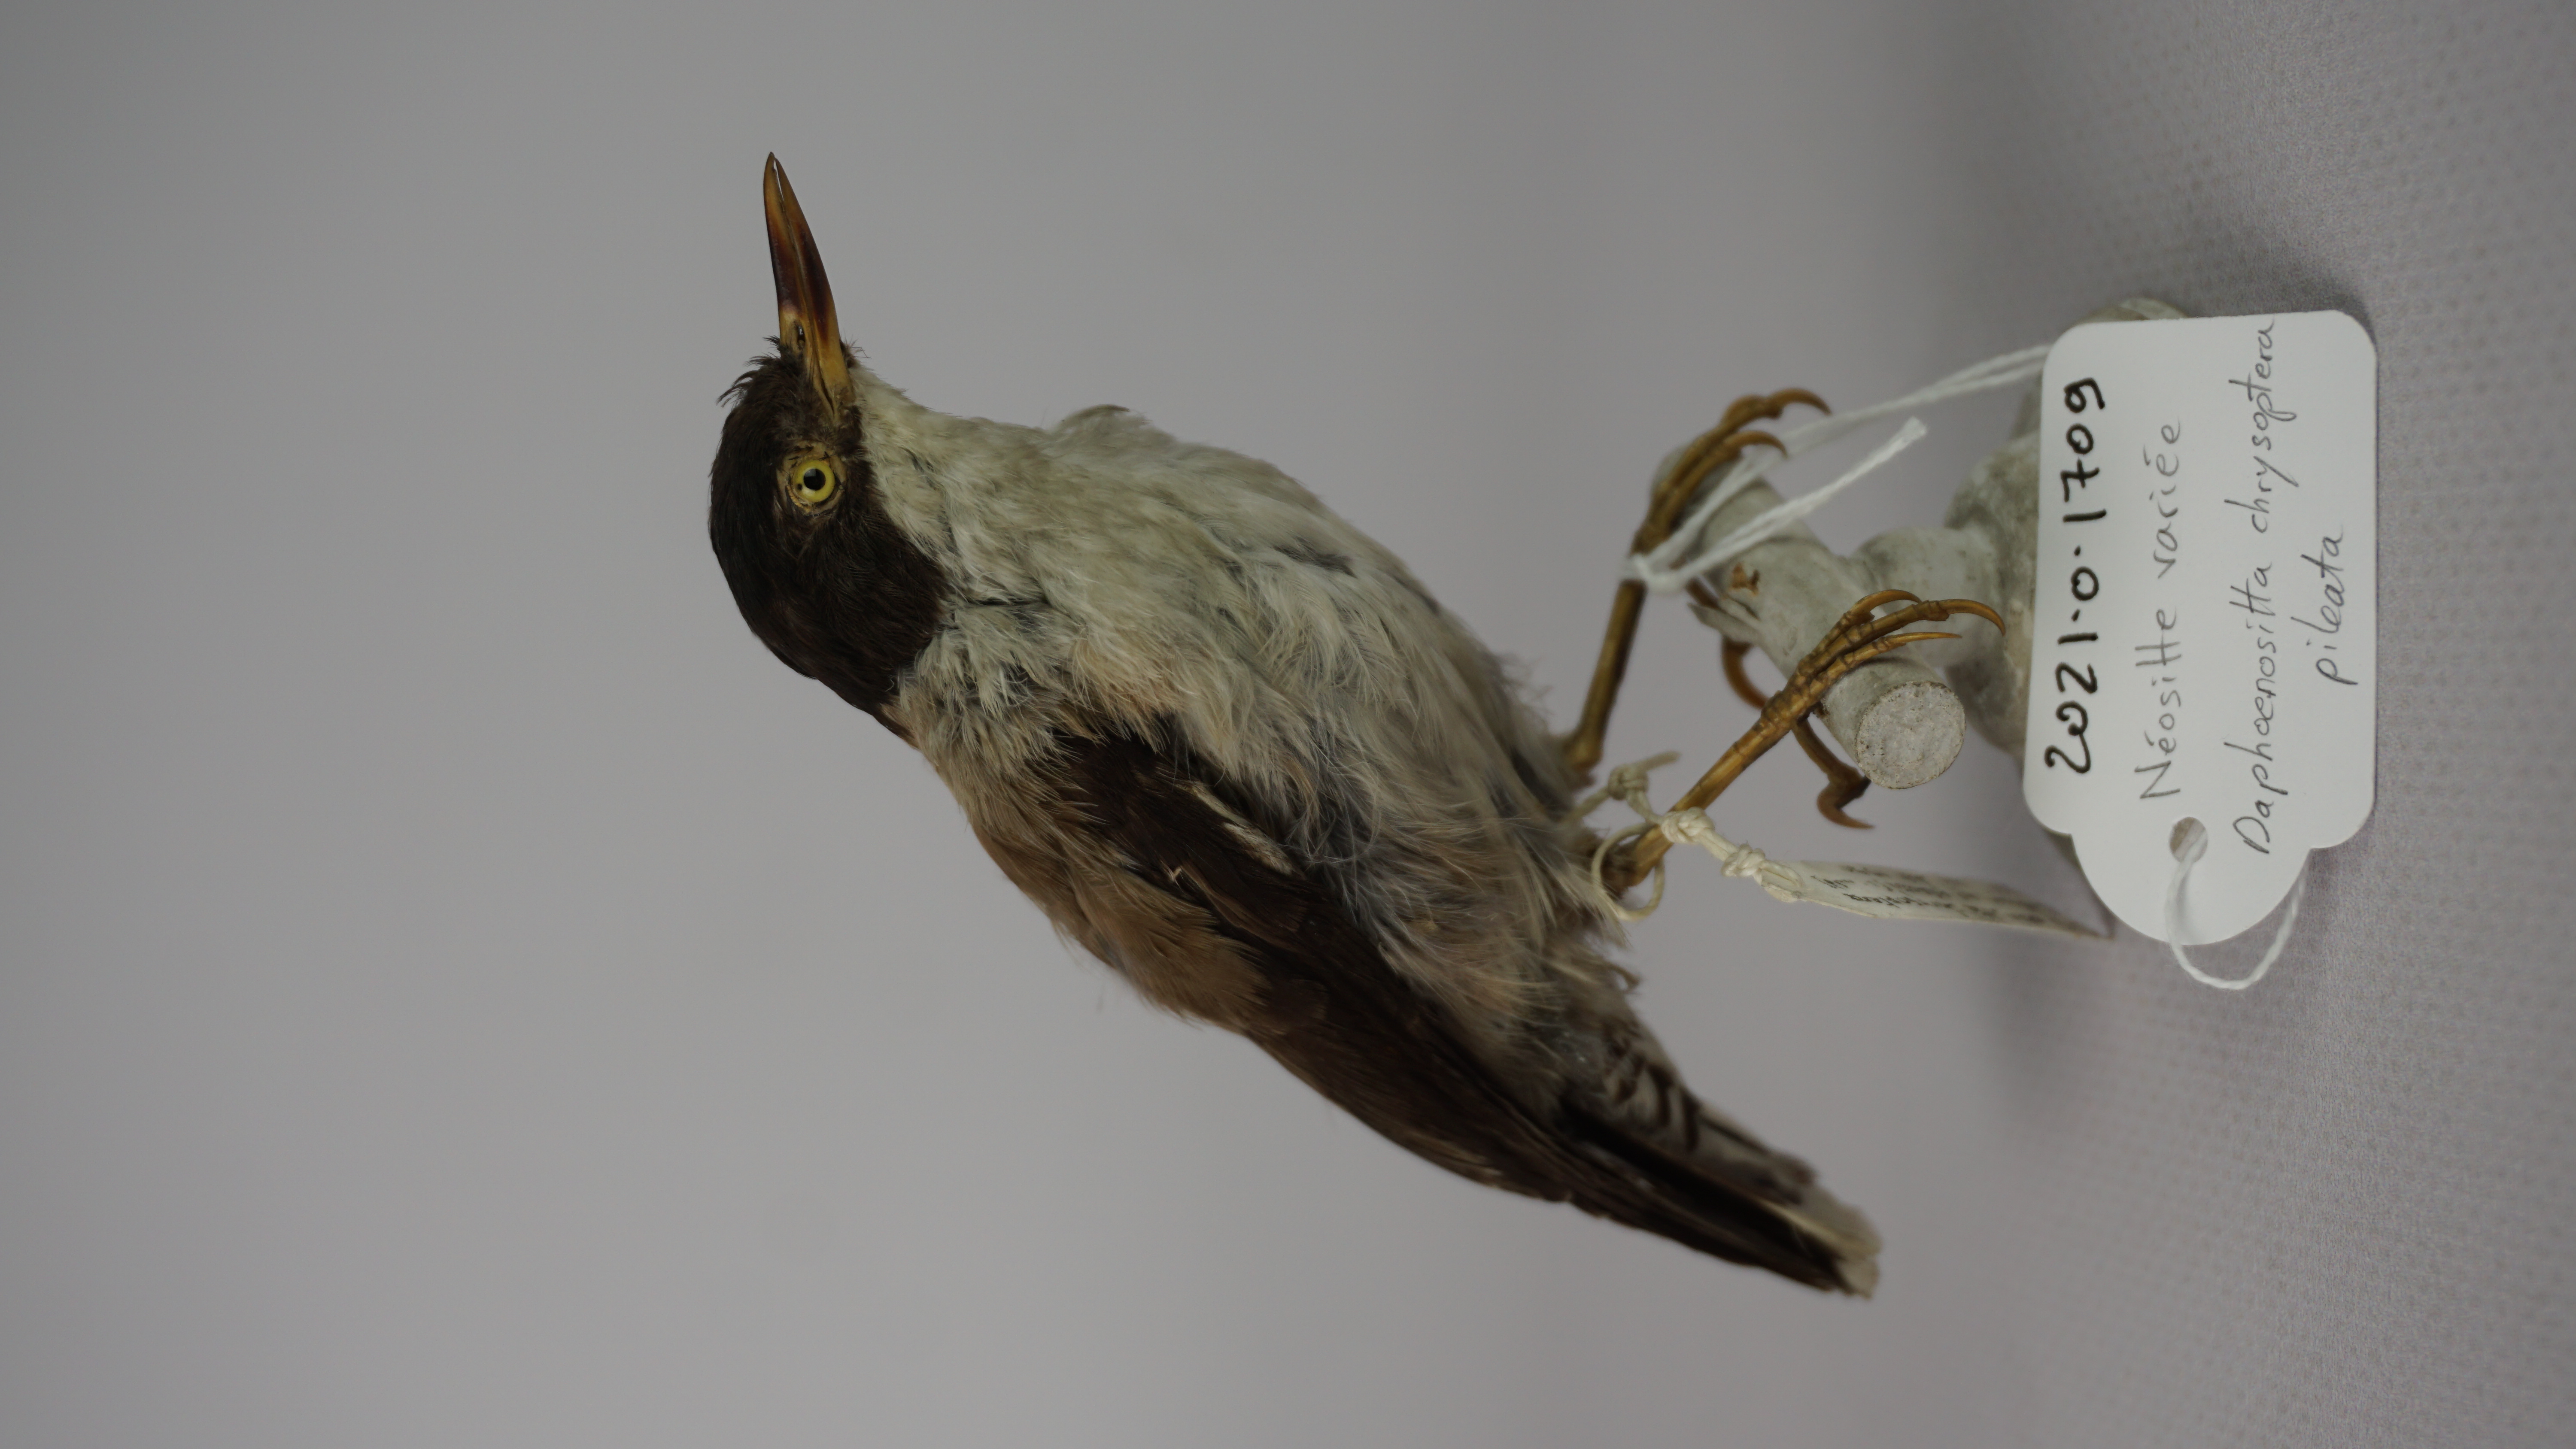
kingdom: Animalia
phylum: Chordata
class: Aves
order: Passeriformes
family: Neosittidae
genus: Daphoenositta
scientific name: Daphoenositta chrysoptera
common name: Varied sittella
